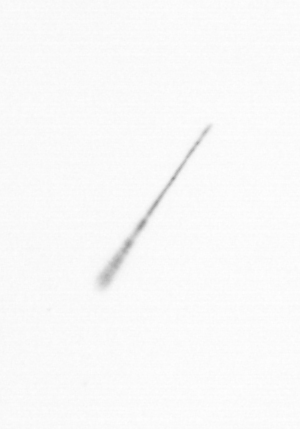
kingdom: Chromista
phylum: Ochrophyta
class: Bacillariophyceae
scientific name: Bacillariophyceae
